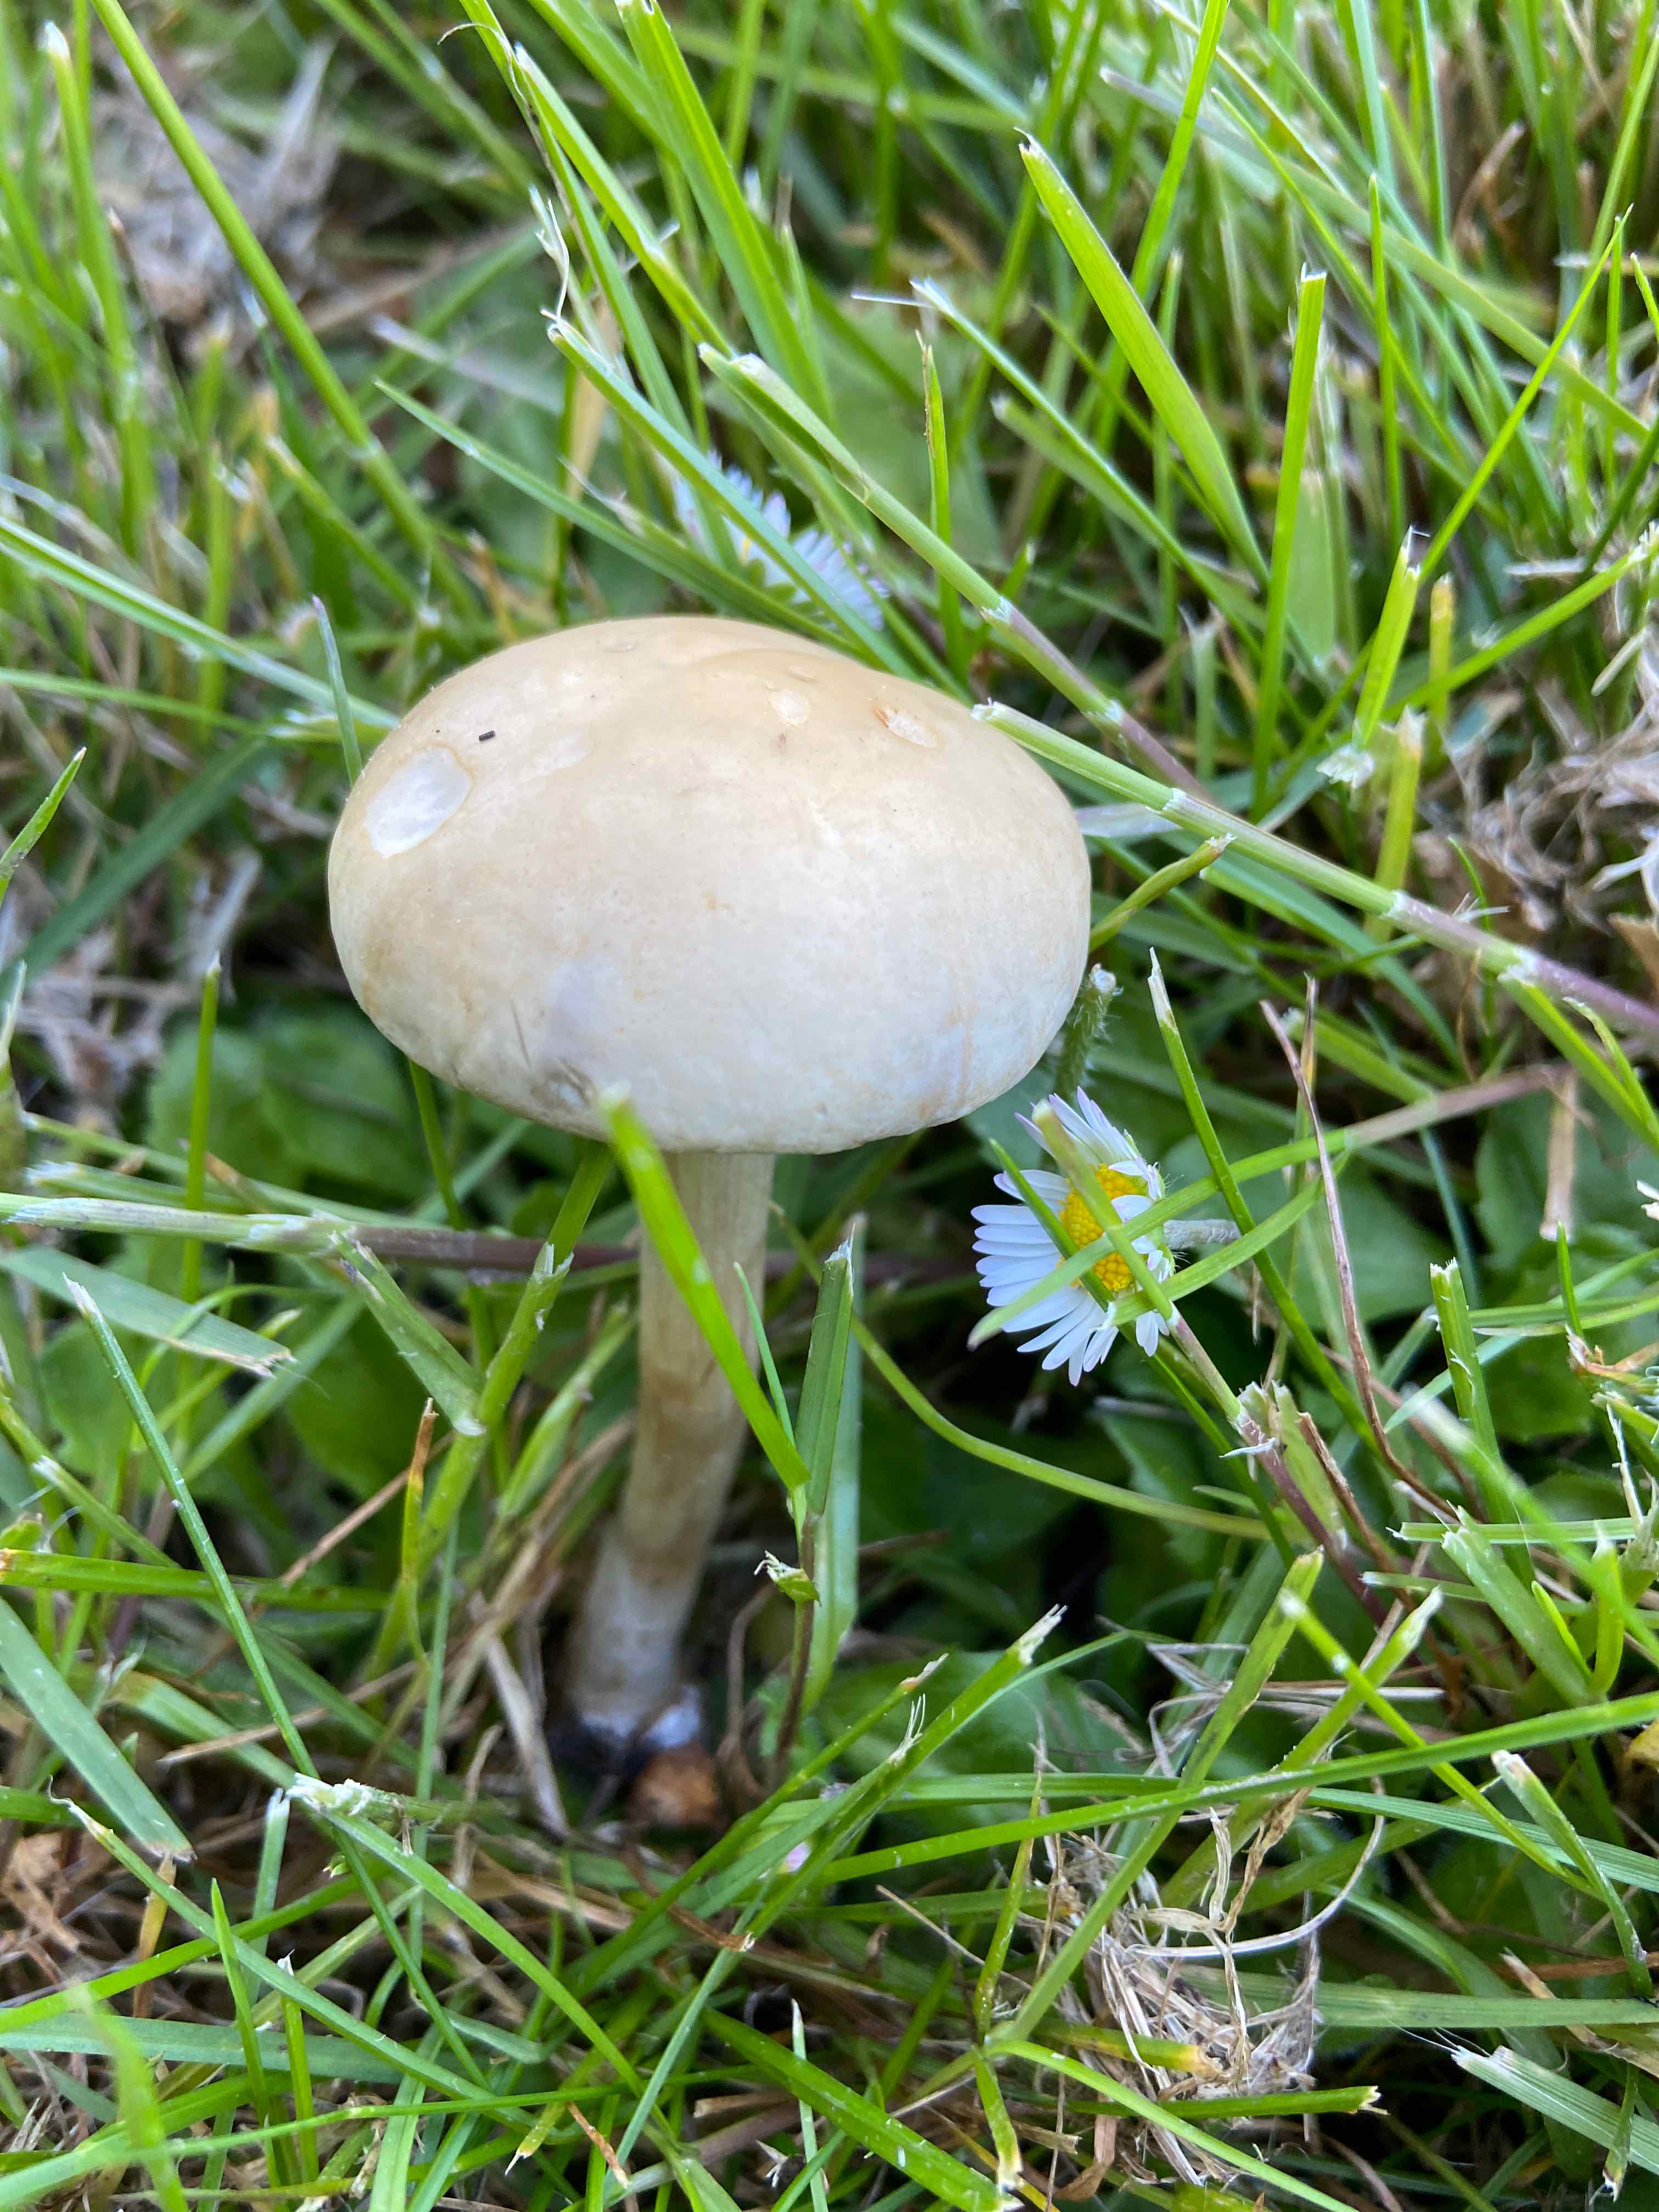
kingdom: Fungi
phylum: Basidiomycota
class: Agaricomycetes
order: Agaricales
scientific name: Agaricales
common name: champignonordenen
